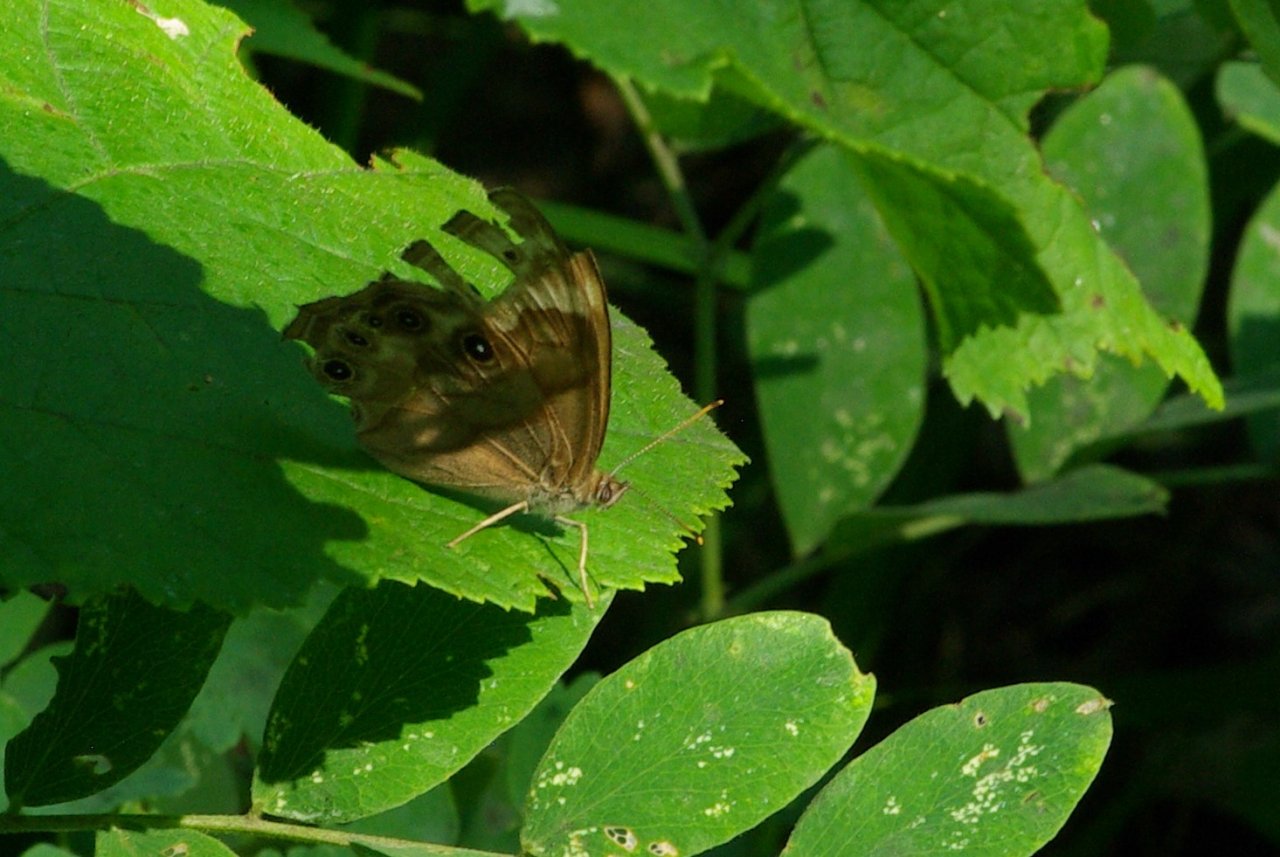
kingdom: Animalia
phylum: Arthropoda
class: Insecta
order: Lepidoptera
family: Nymphalidae
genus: Lethe
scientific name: Lethe anthedon
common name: Northern Pearly-Eye
